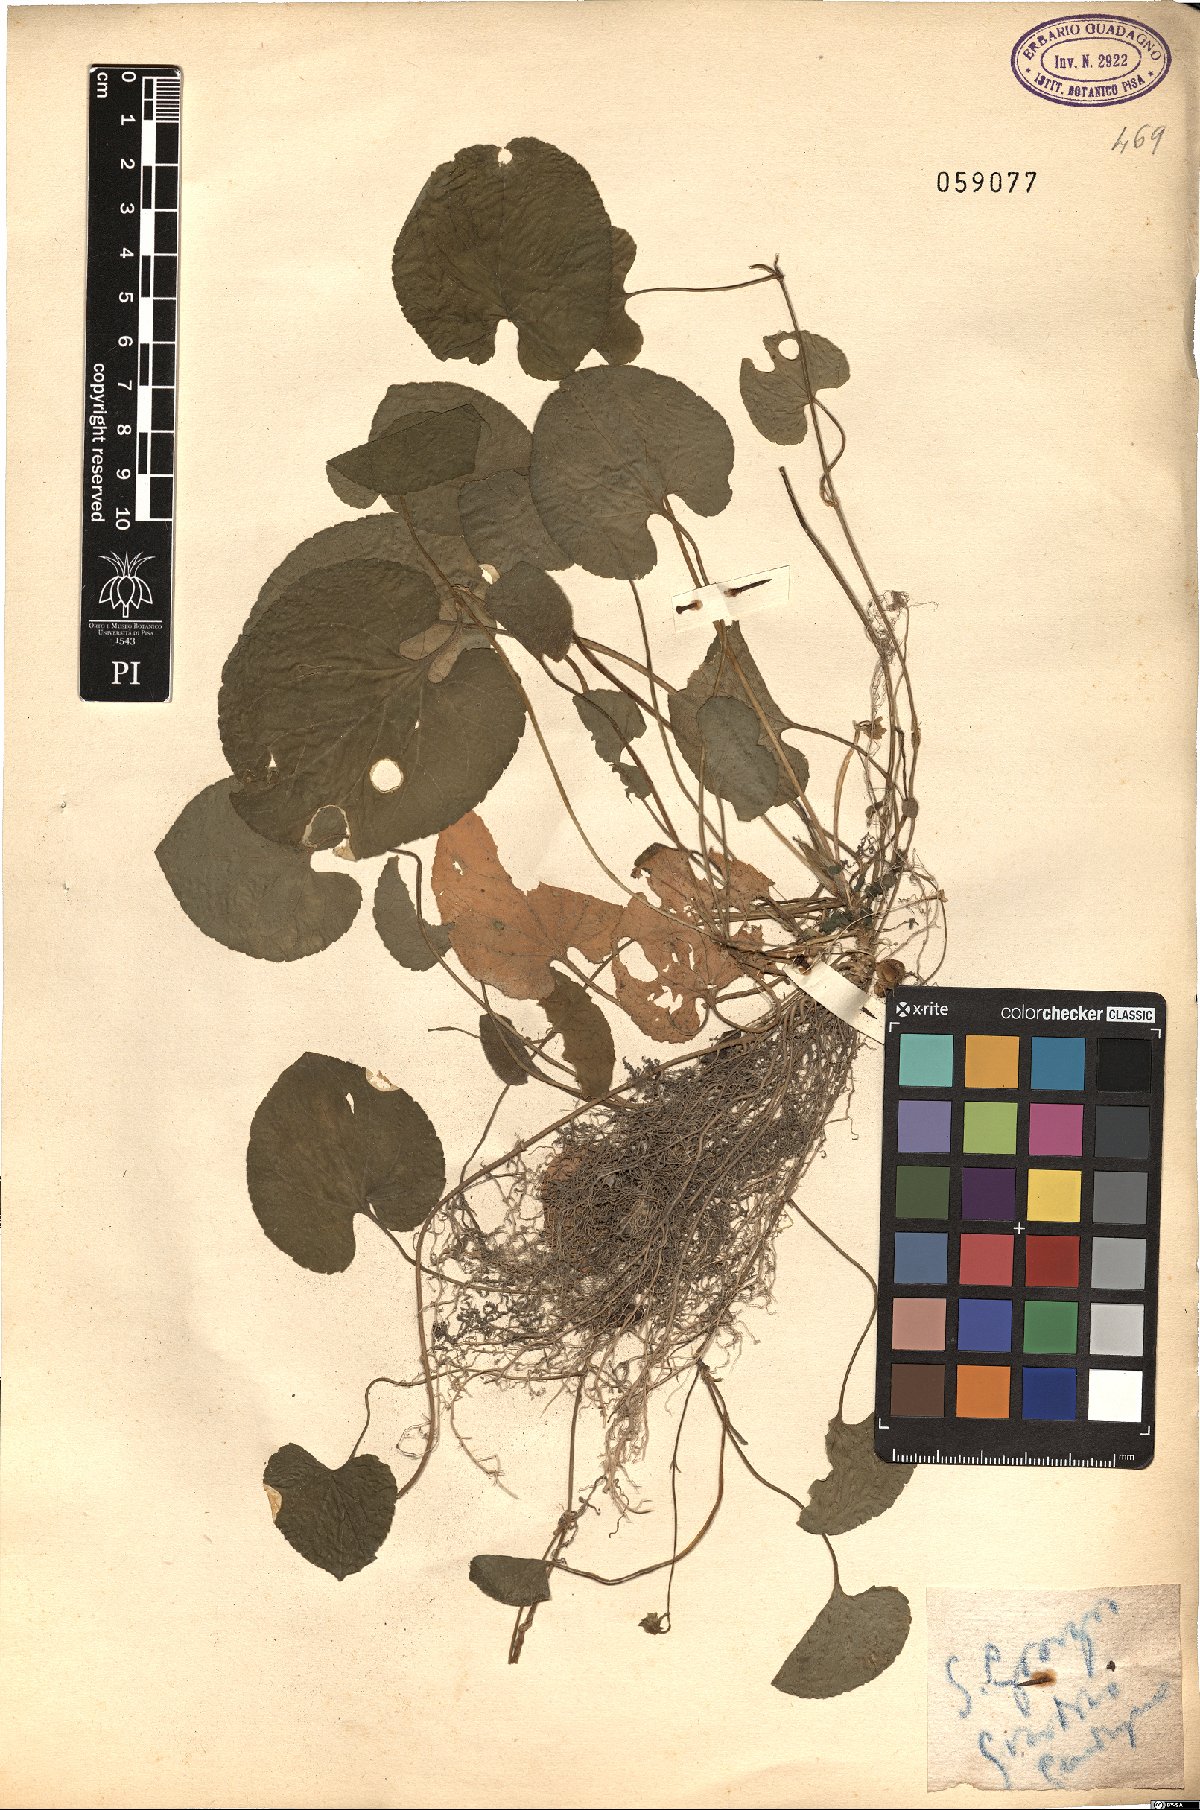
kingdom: Plantae
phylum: Tracheophyta
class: Magnoliopsida
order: Malpighiales
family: Violaceae
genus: Viola
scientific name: Viola
